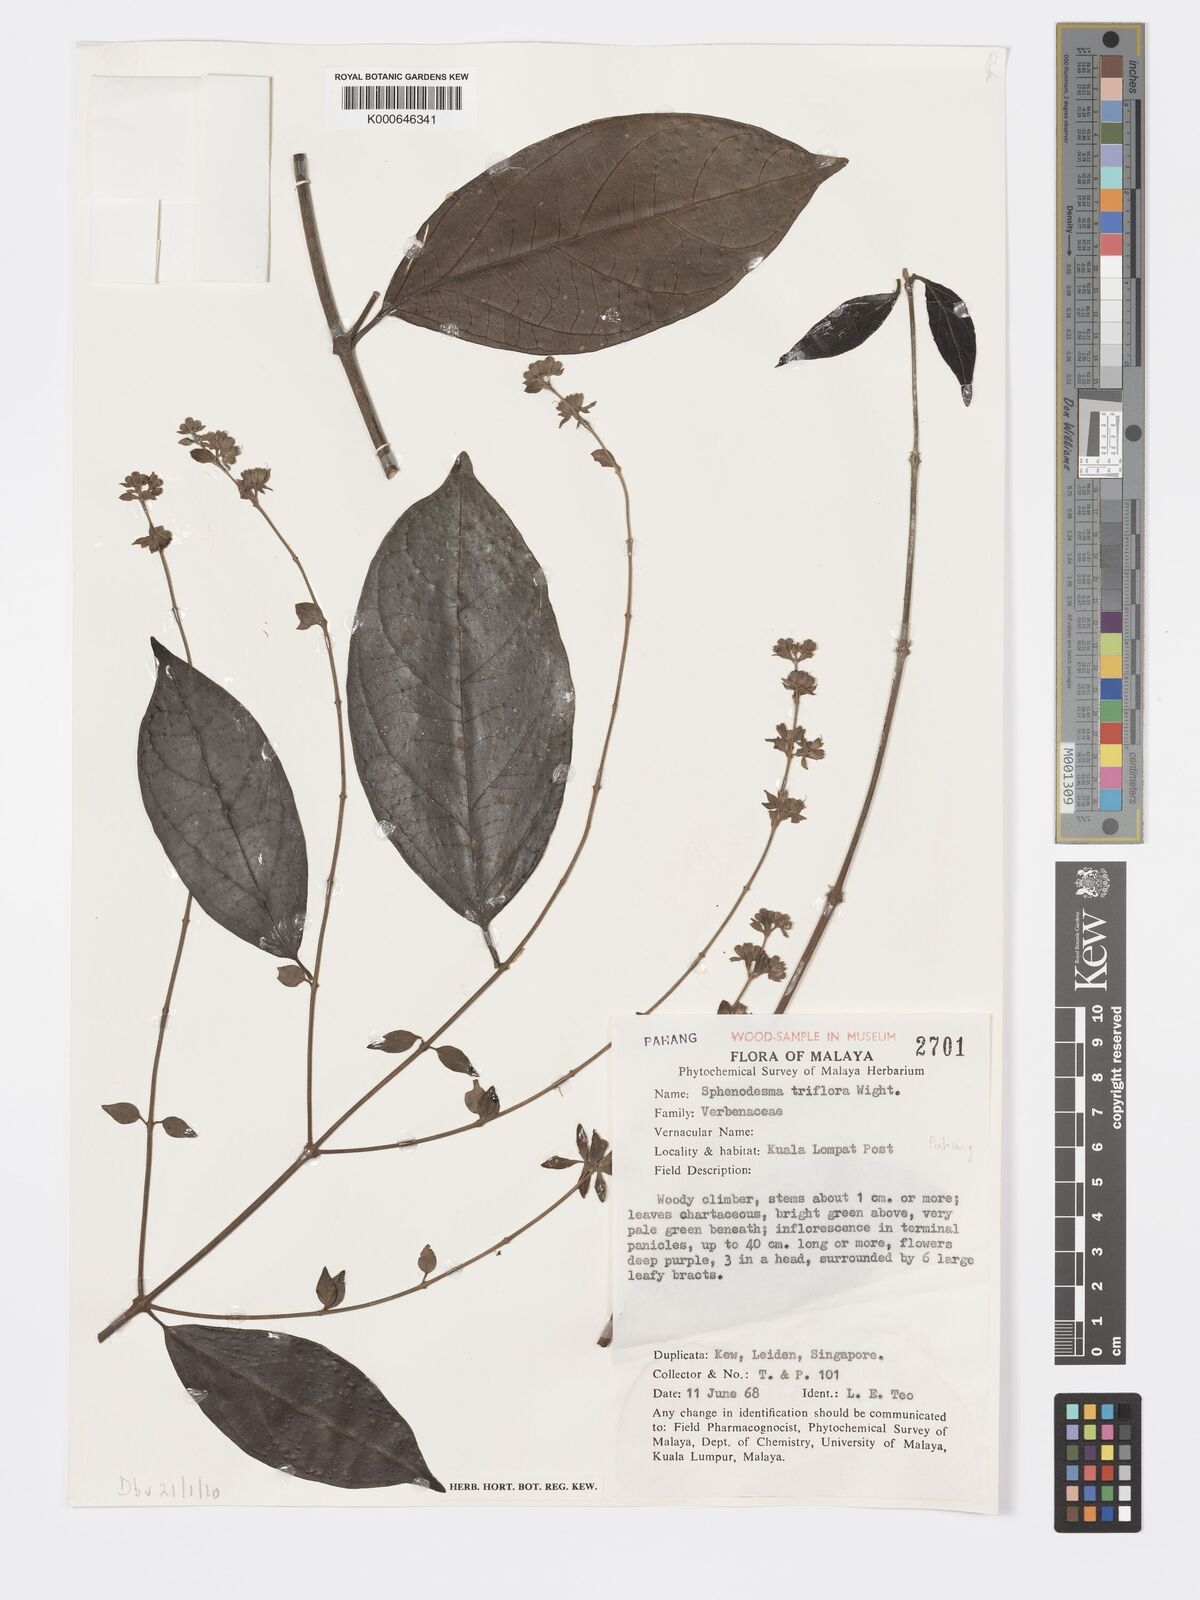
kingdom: Plantae
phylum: Tracheophyta
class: Magnoliopsida
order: Lamiales
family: Lamiaceae
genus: Sphenodesme
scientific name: Sphenodesme
